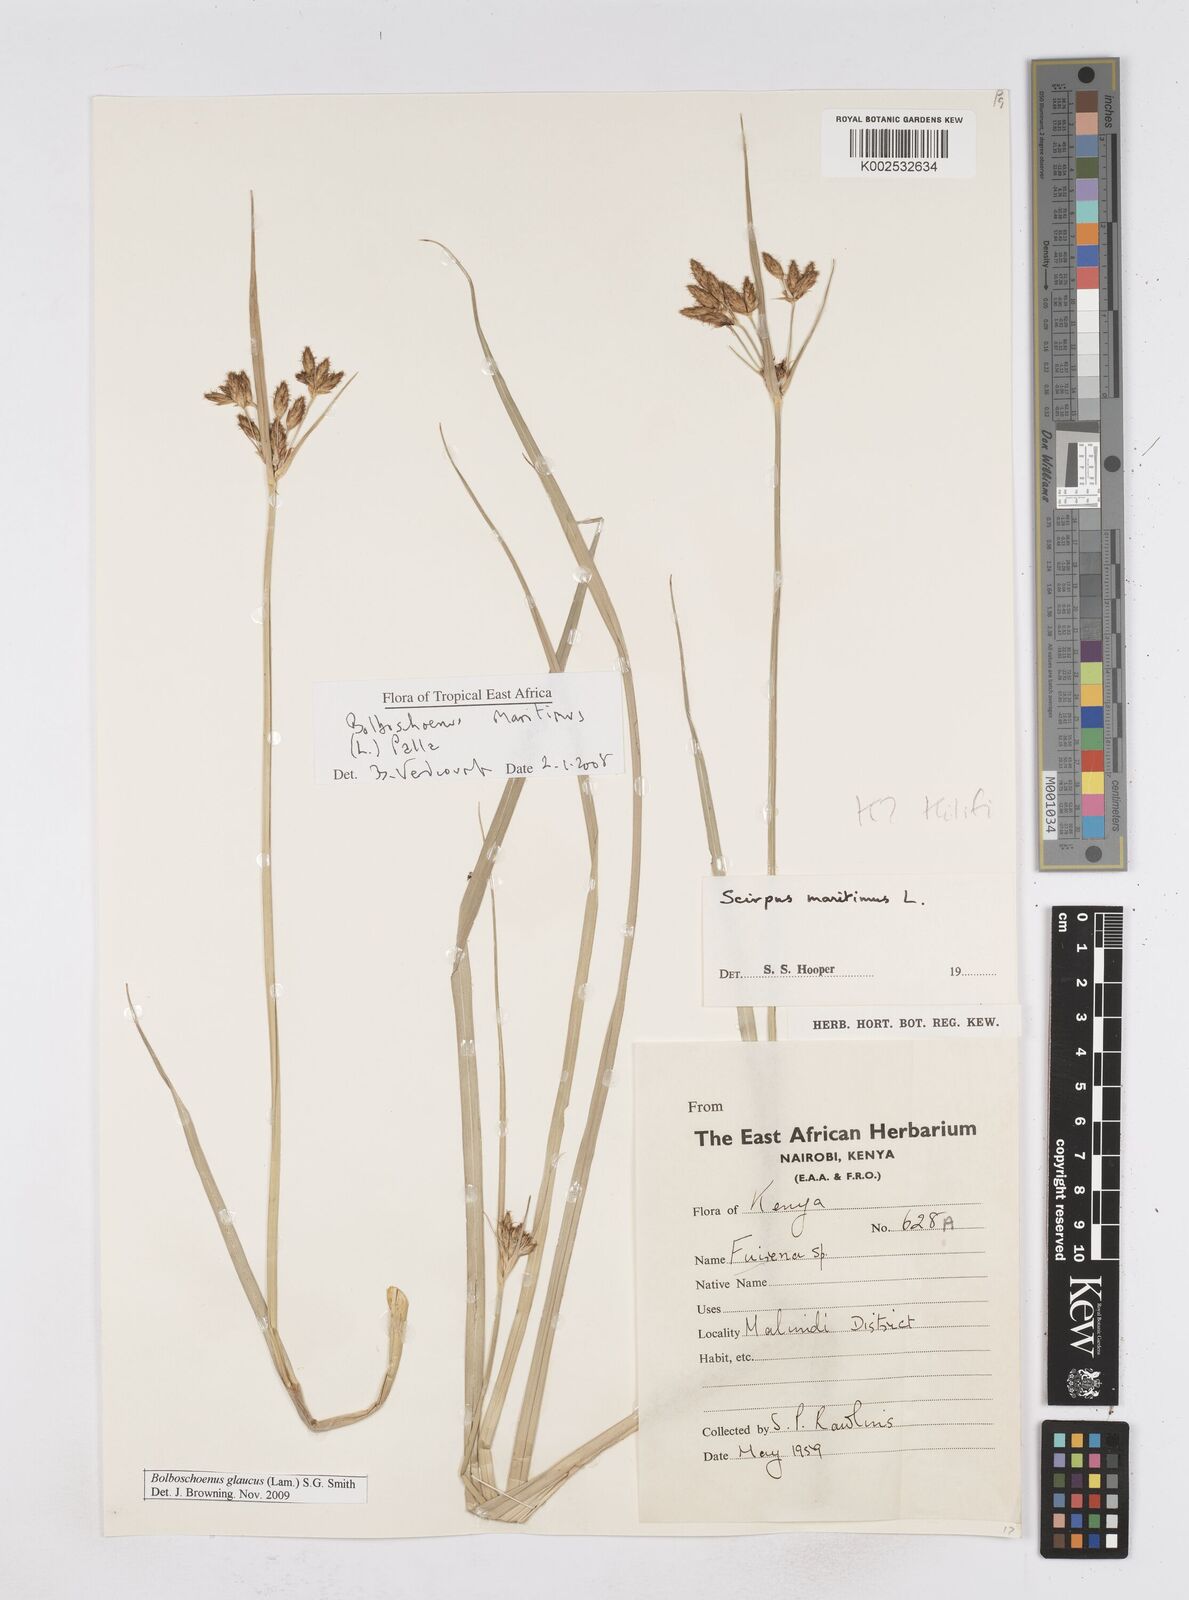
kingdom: Plantae
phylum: Tracheophyta
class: Liliopsida
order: Poales
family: Cyperaceae
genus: Bolboschoenus
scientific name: Bolboschoenus glaucus
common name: Tuberous bulrush
